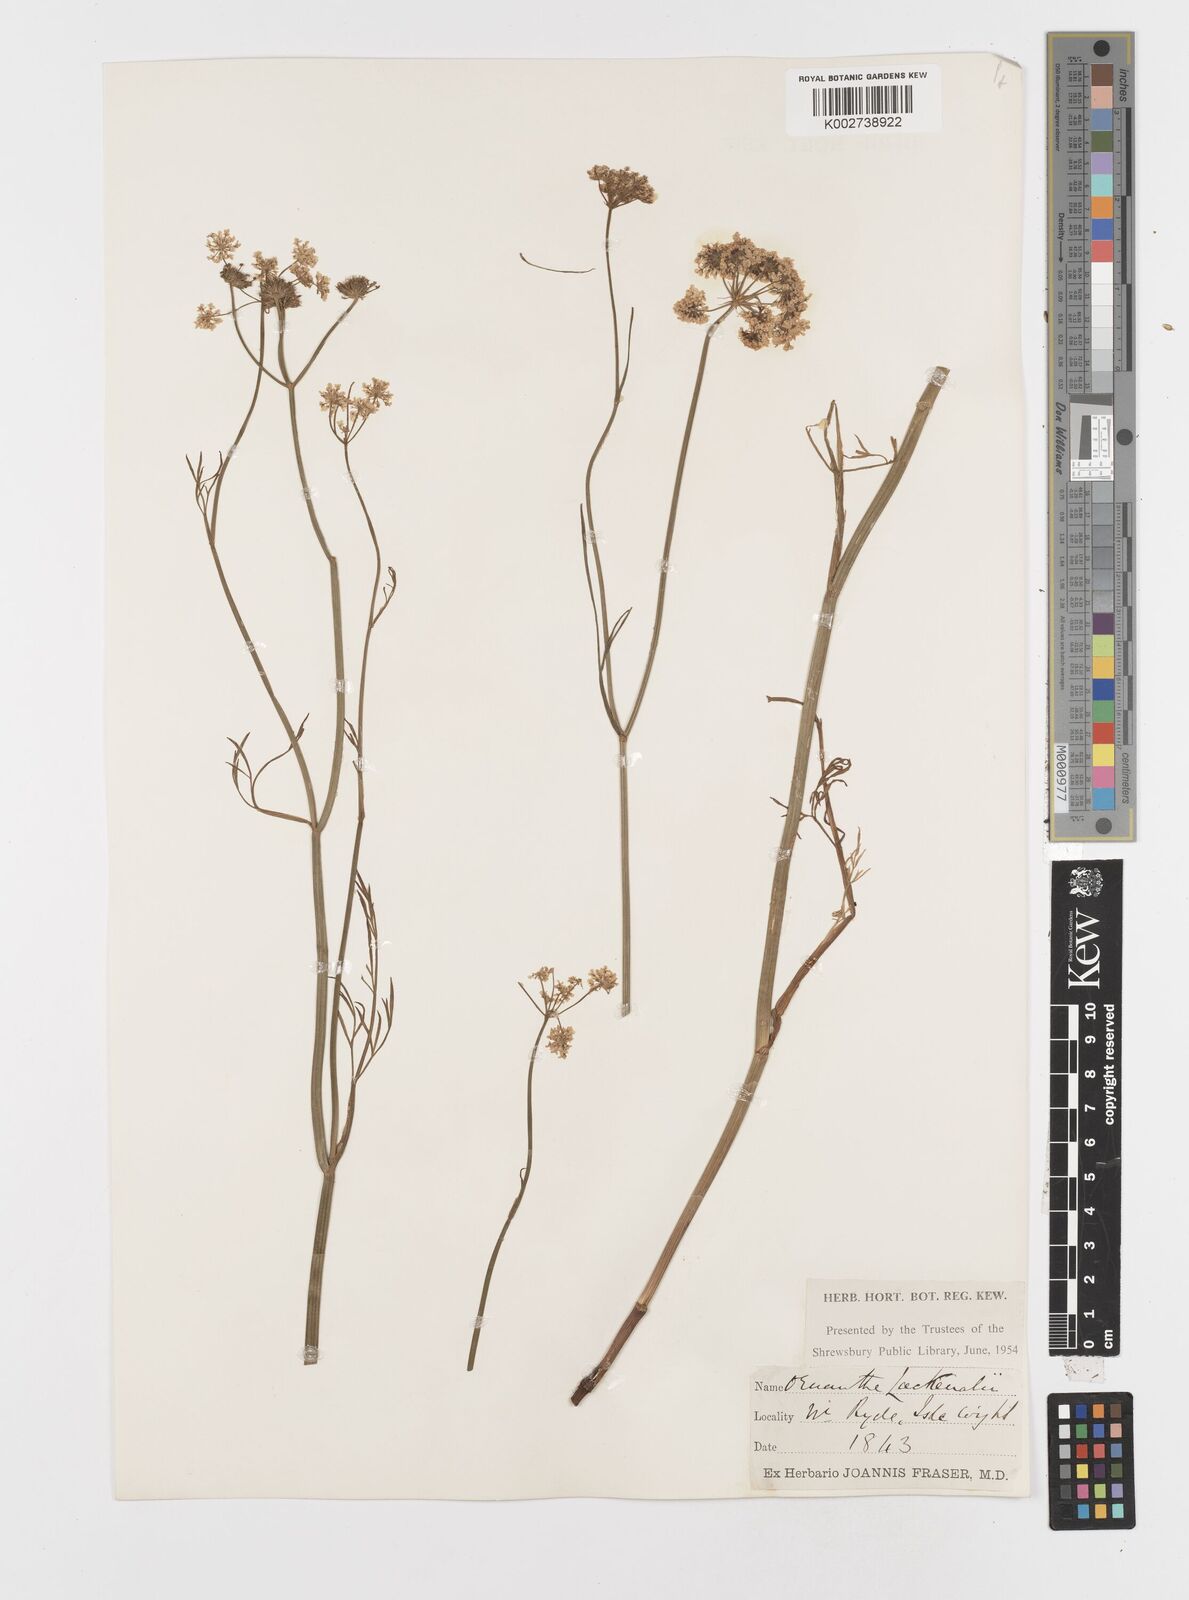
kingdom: Plantae
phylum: Tracheophyta
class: Magnoliopsida
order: Apiales
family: Apiaceae
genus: Oenanthe
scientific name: Oenanthe lachenalii
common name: Parsley water-dropwort
